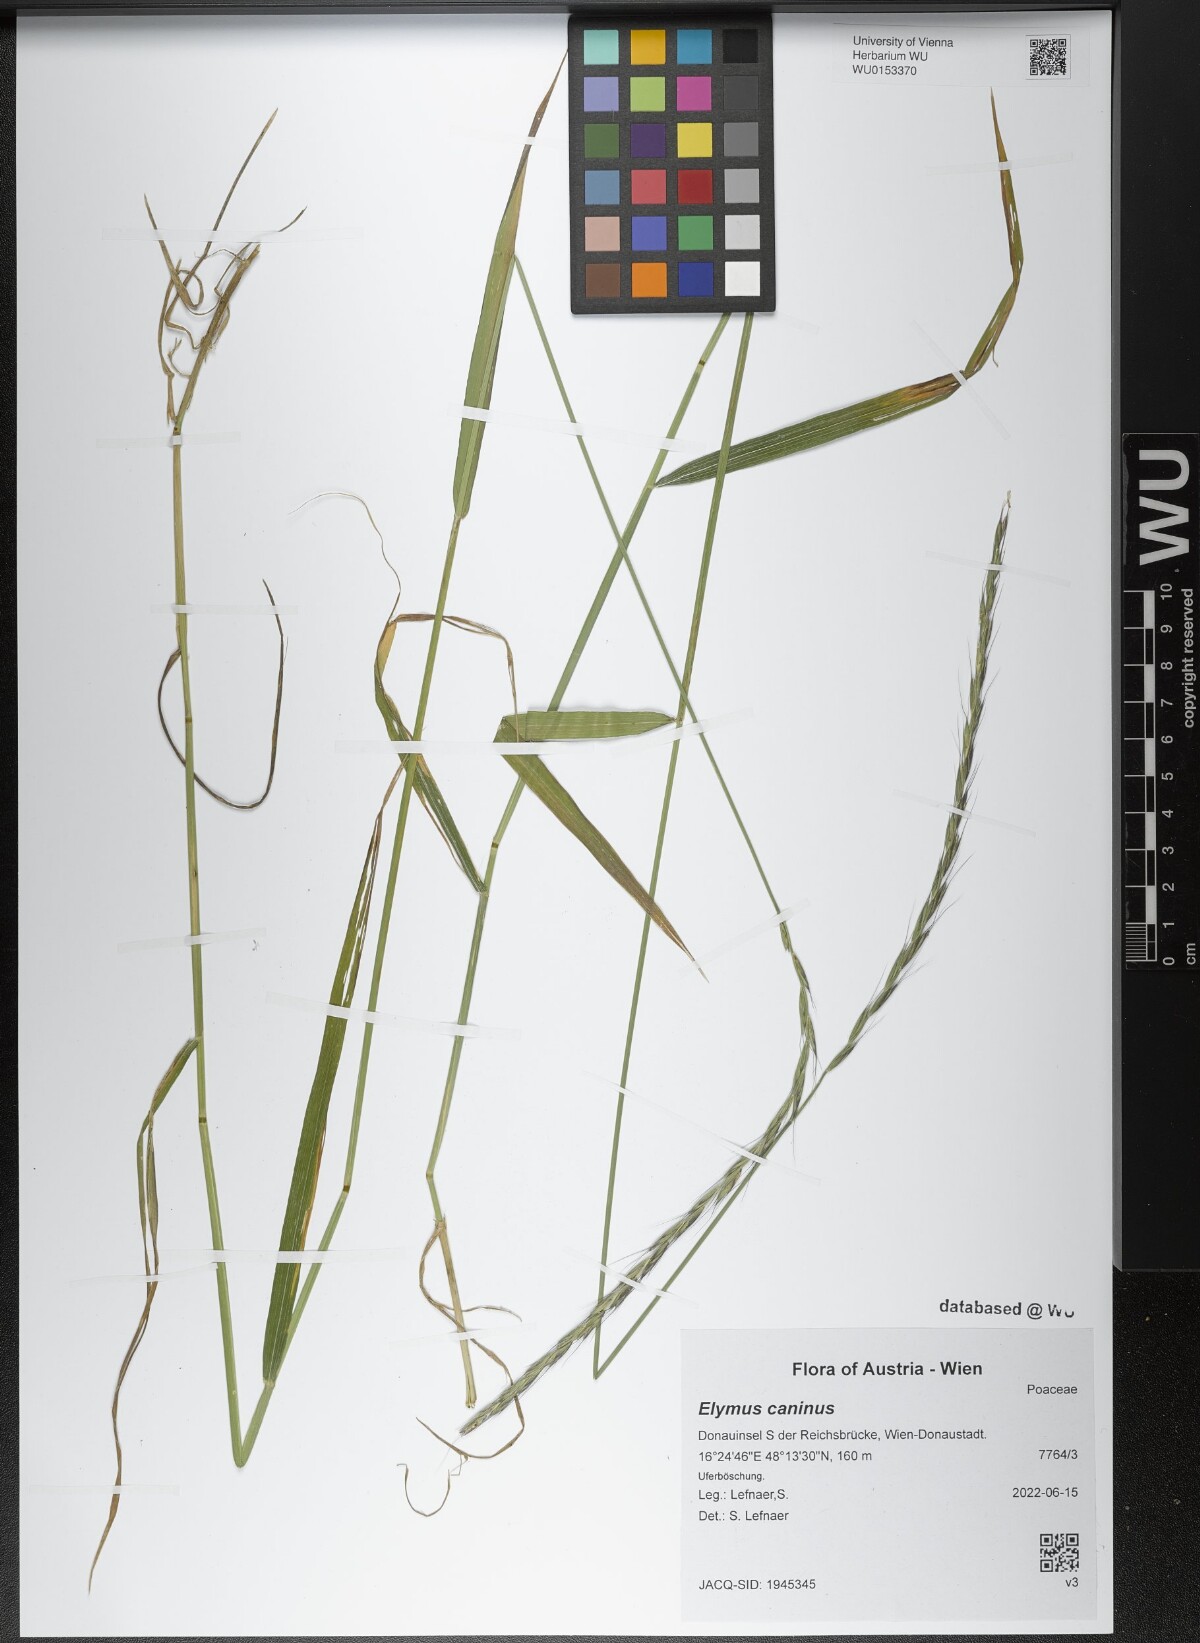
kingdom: Plantae
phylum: Tracheophyta
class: Liliopsida
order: Poales
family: Poaceae
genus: Elymus
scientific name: Elymus caninus
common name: Bearded couch
